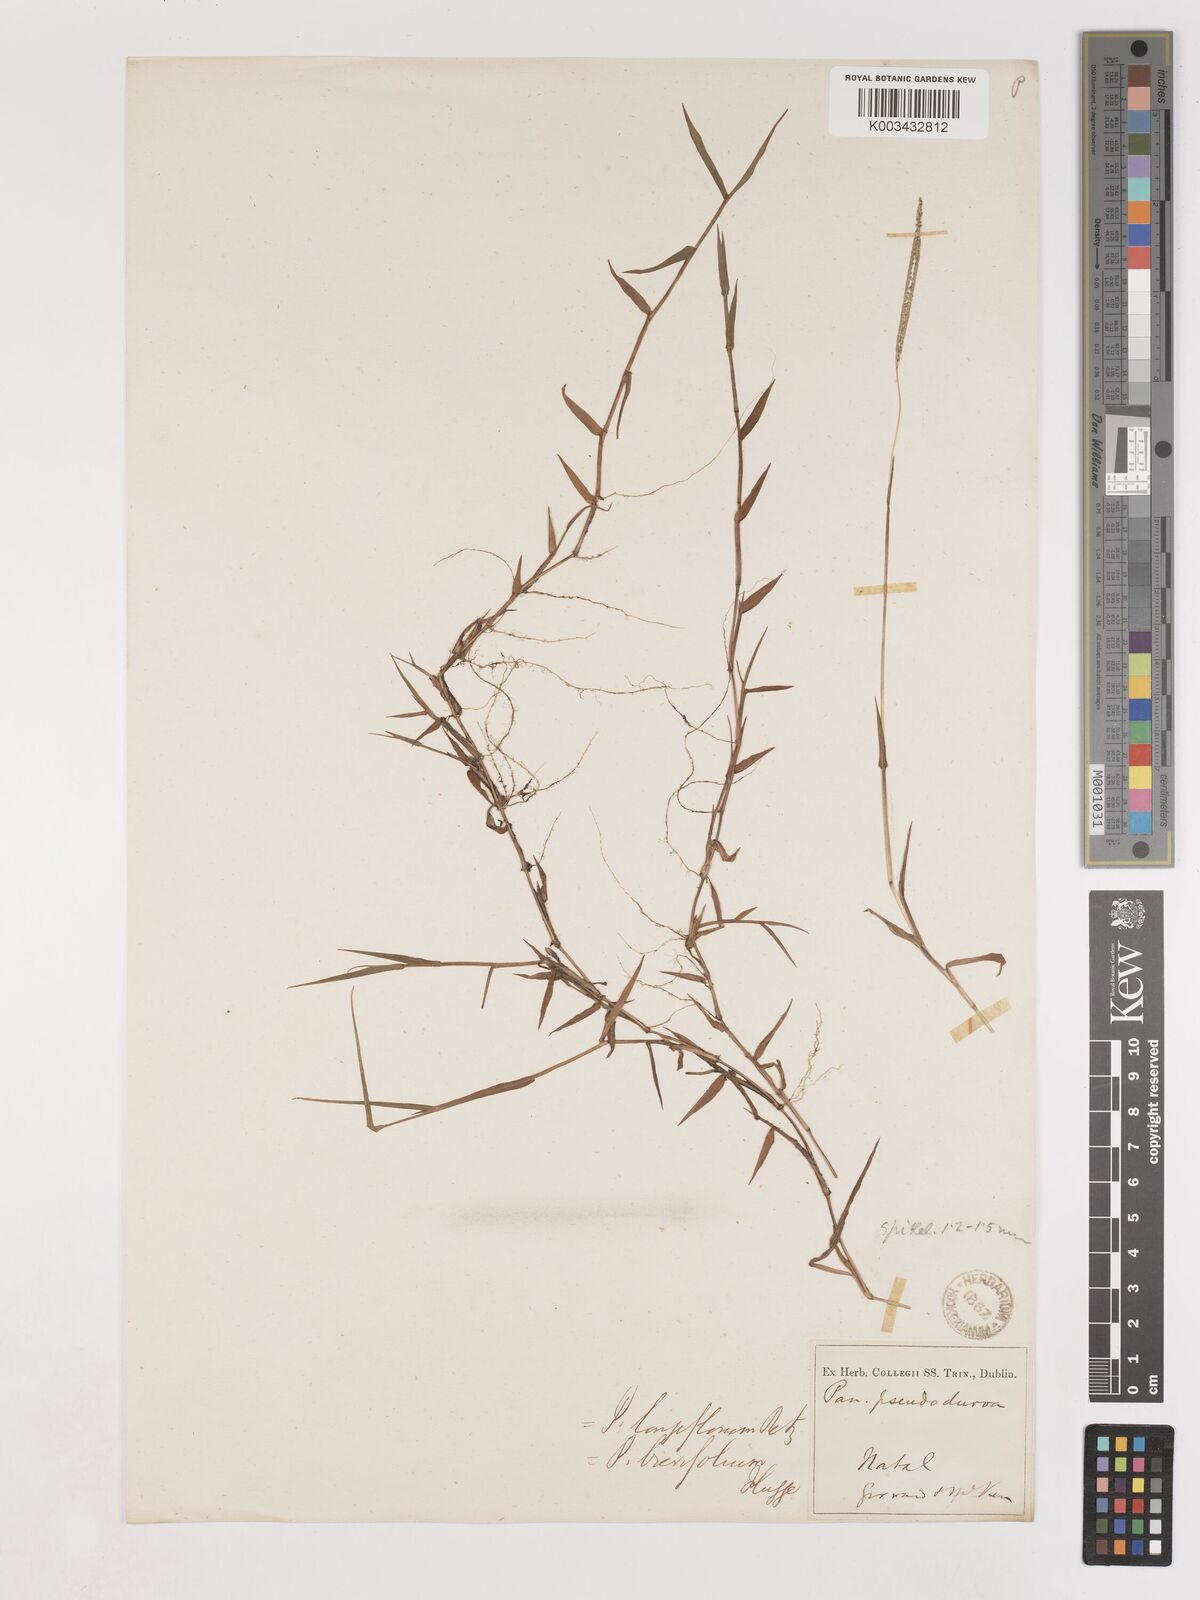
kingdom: Plantae
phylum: Tracheophyta
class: Liliopsida
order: Poales
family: Poaceae
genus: Digitaria
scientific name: Digitaria longiflora
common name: Wire crabgrass
